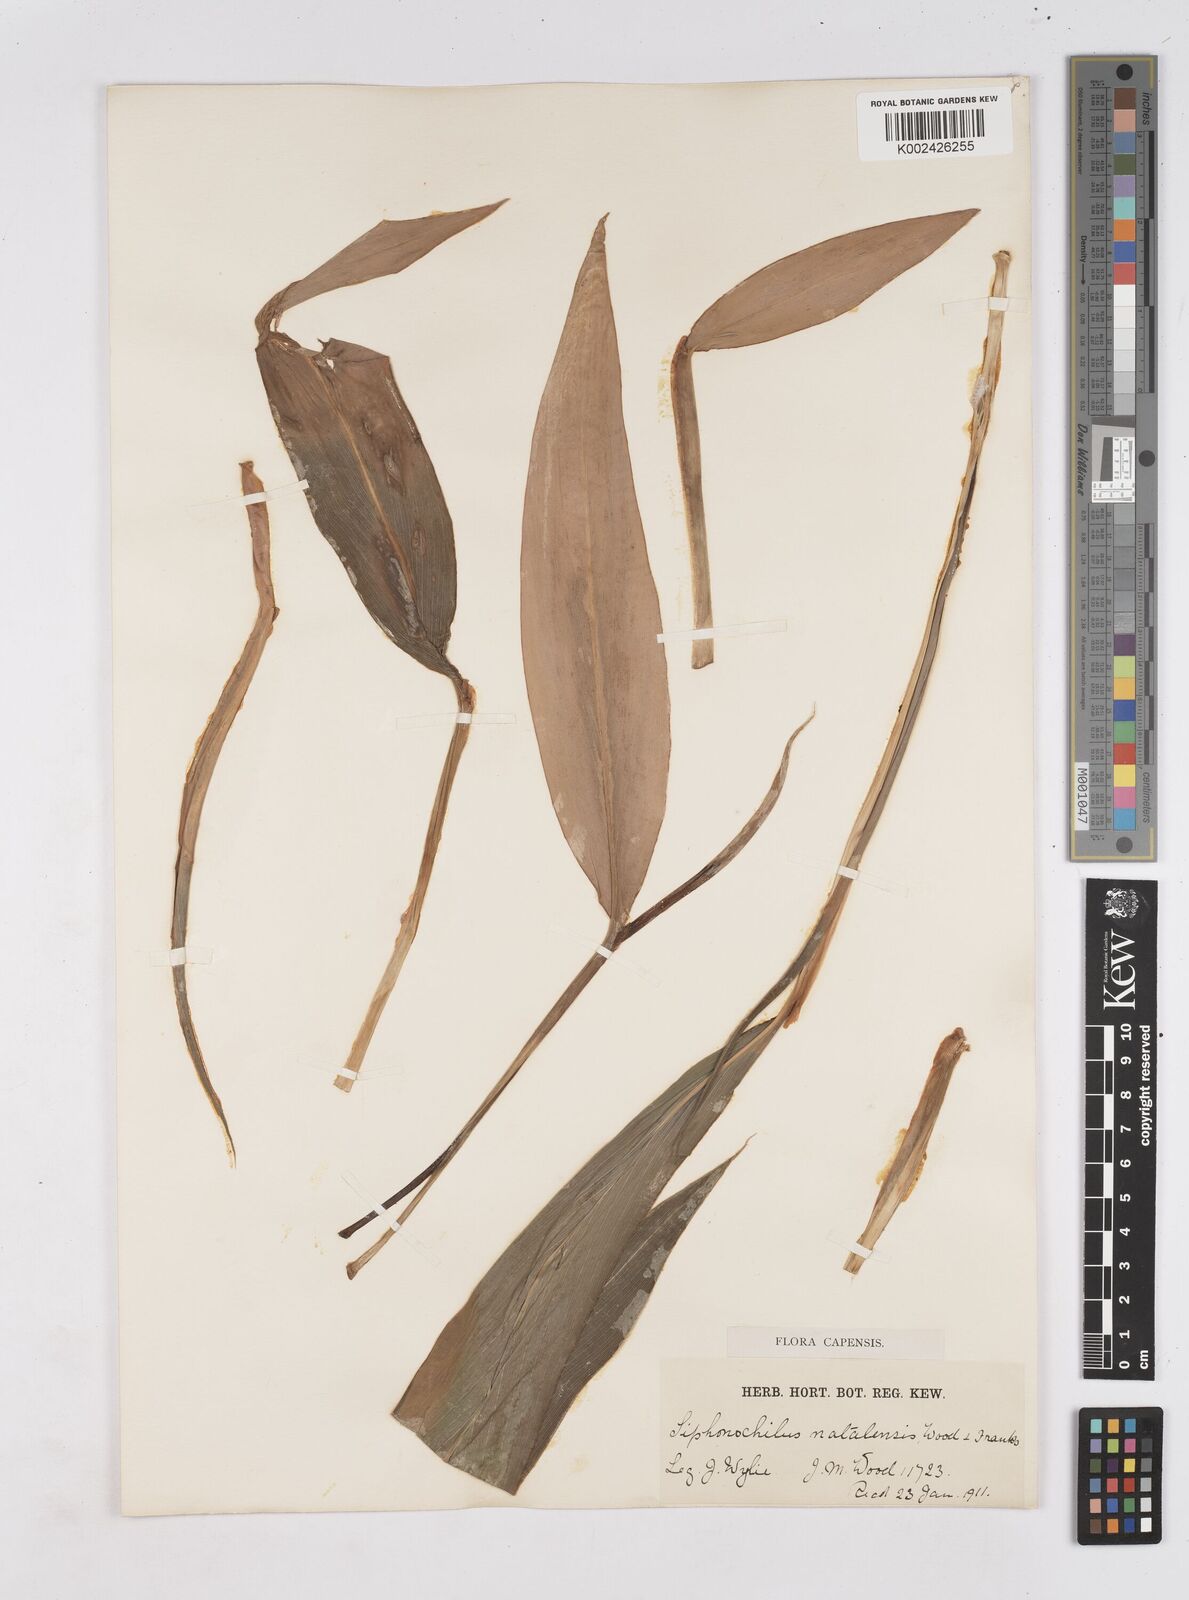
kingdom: Plantae
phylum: Tracheophyta
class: Liliopsida
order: Zingiberales
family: Zingiberaceae
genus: Siphonochilus
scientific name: Siphonochilus aethiopicus
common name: African-ginger
